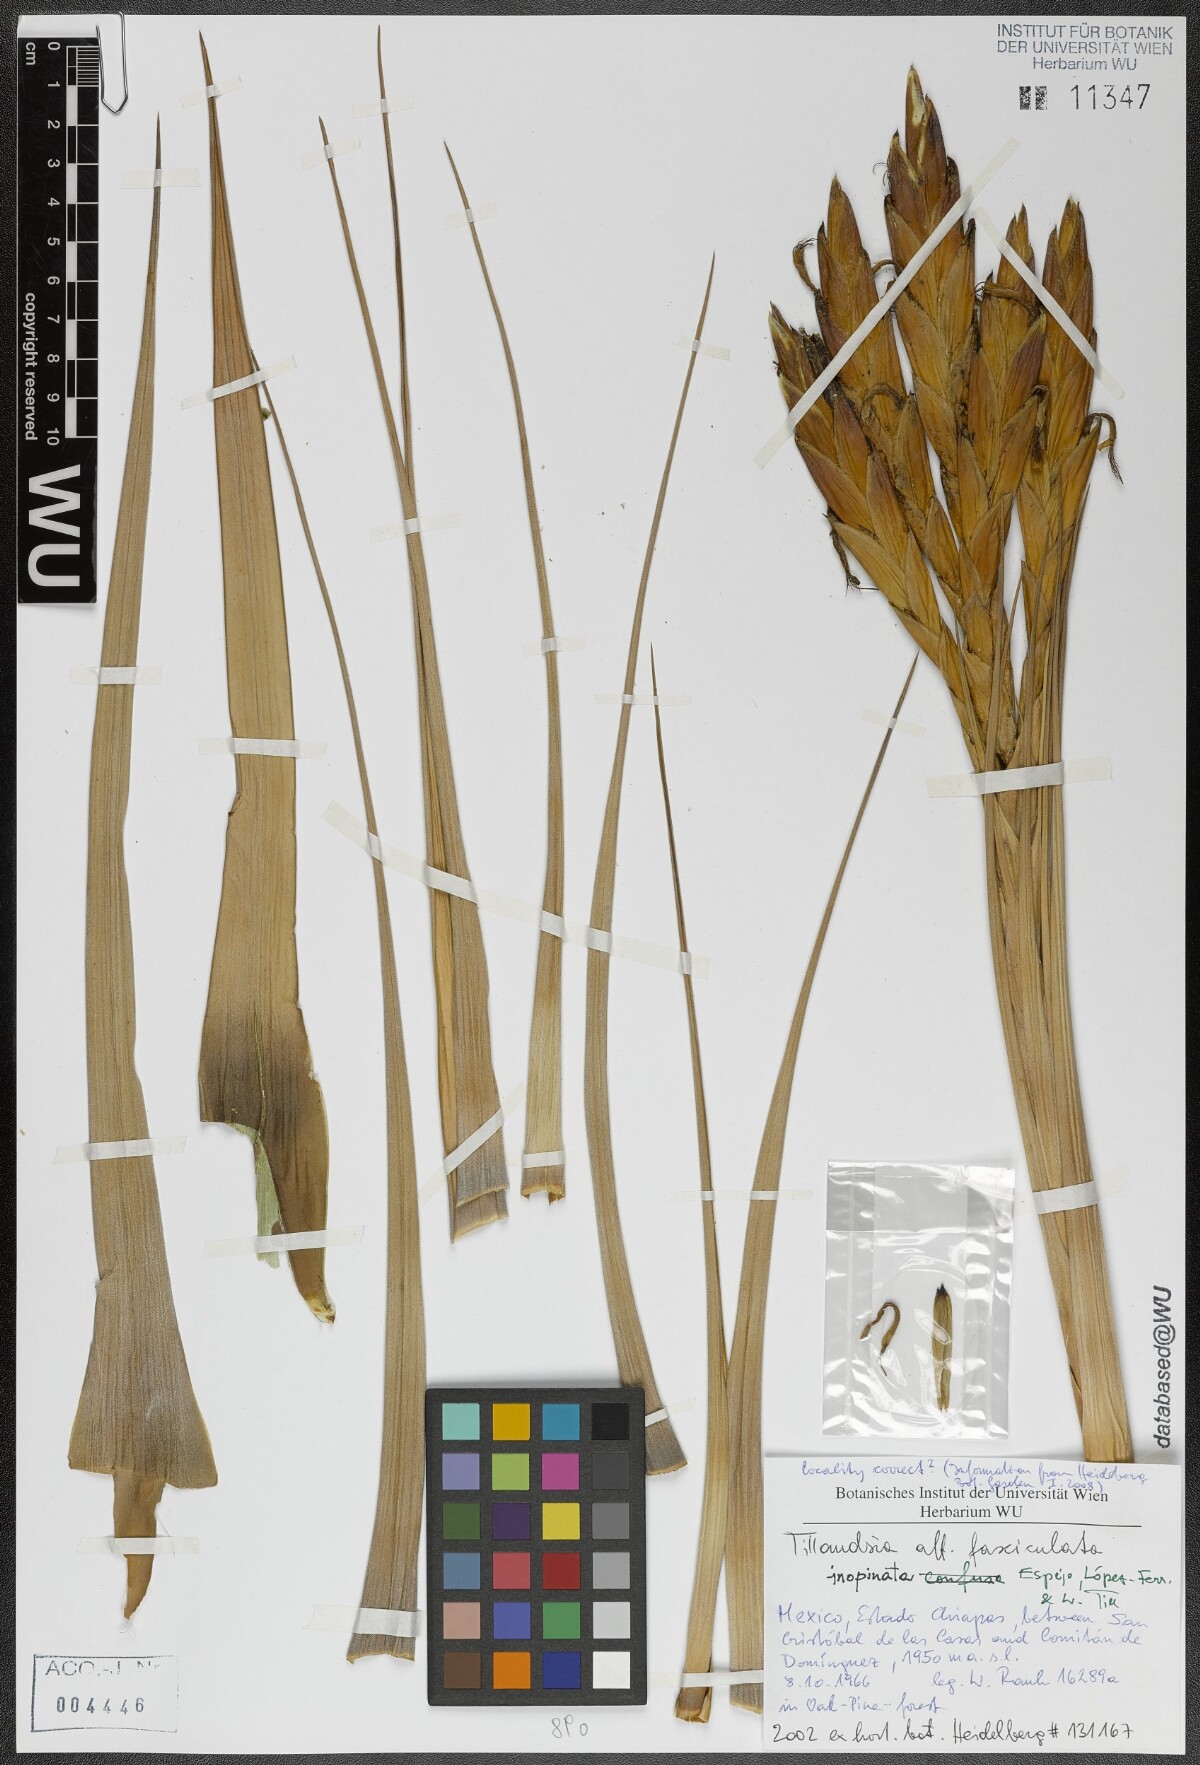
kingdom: Plantae
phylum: Tracheophyta
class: Liliopsida
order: Poales
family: Bromeliaceae
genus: Tillandsia
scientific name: Tillandsia inopinata
